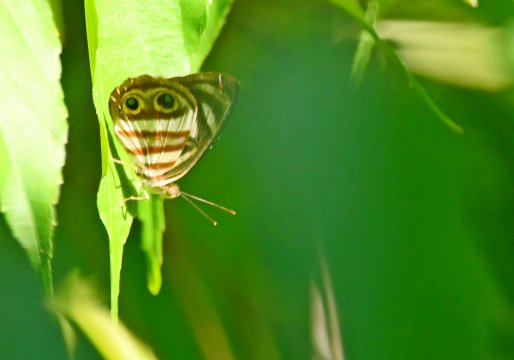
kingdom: Animalia
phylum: Arthropoda
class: Insecta
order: Lepidoptera
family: Nymphalidae
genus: Dynamine
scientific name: Dynamine mylitta
